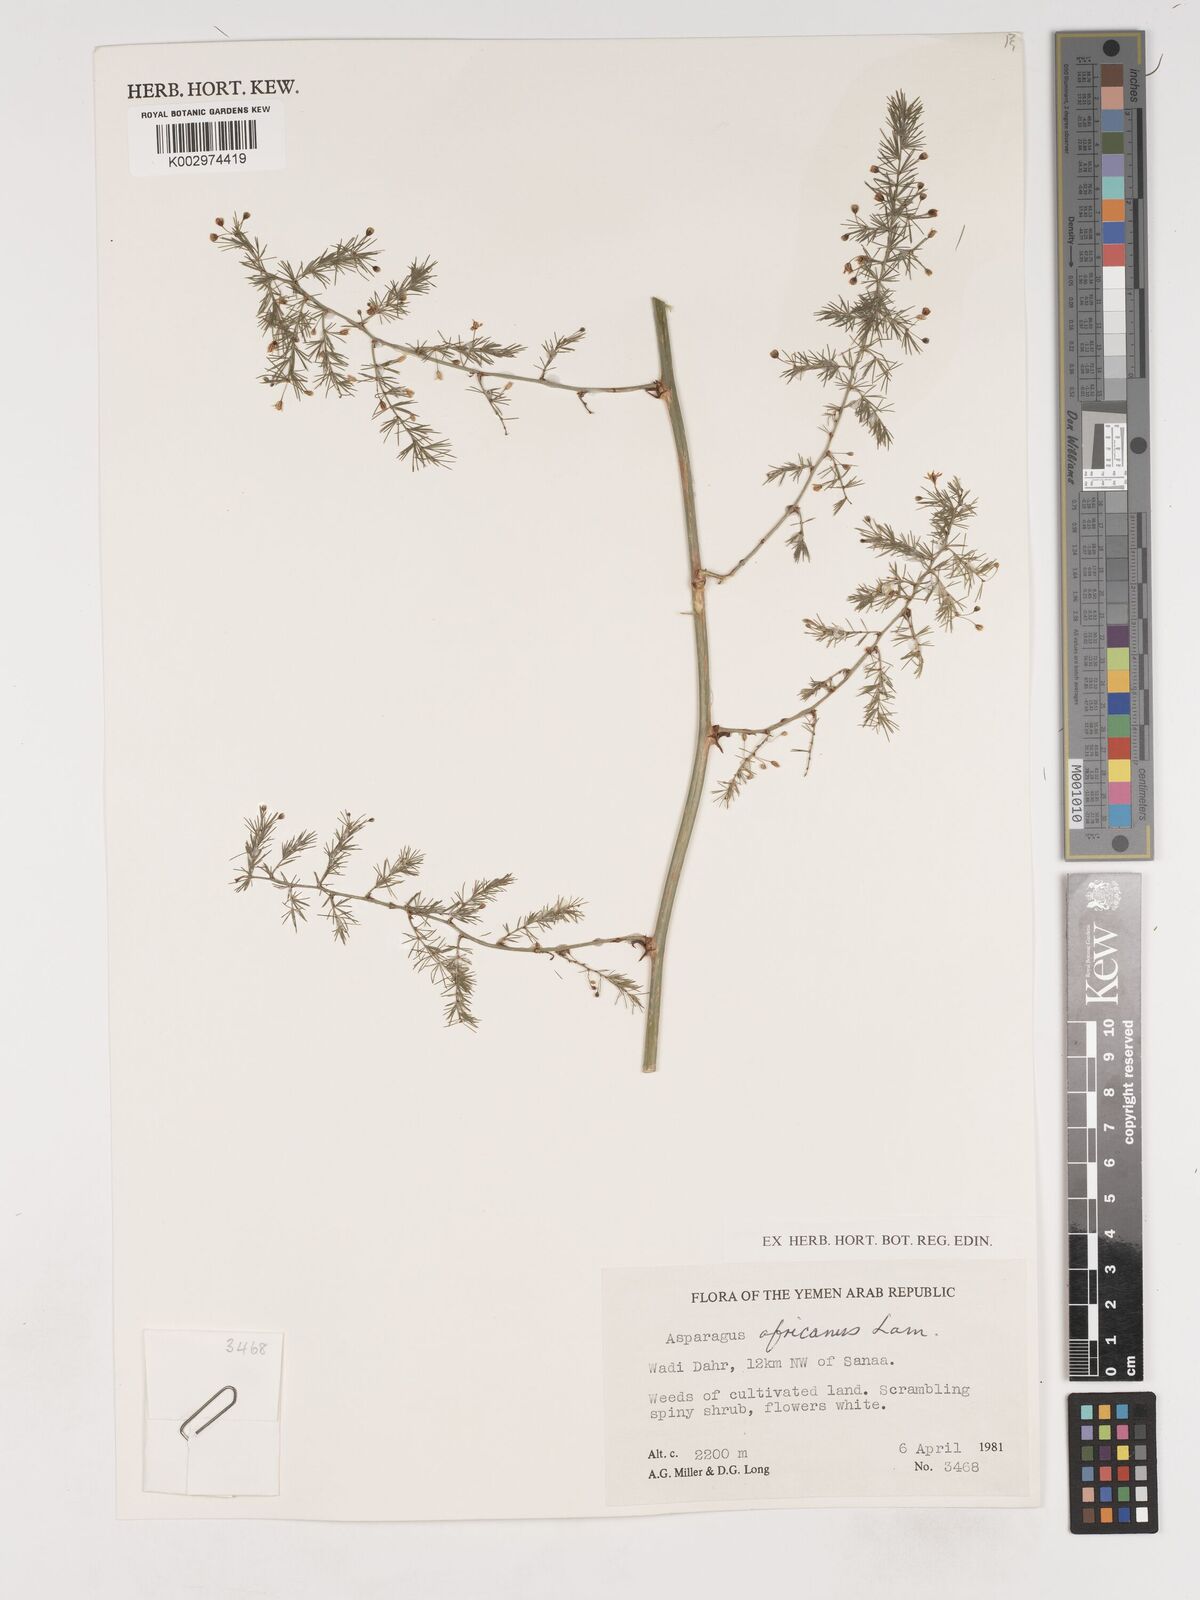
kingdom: Plantae
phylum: Tracheophyta
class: Liliopsida
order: Asparagales
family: Asparagaceae
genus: Asparagus
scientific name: Asparagus africanus
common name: Asparagus-fern
